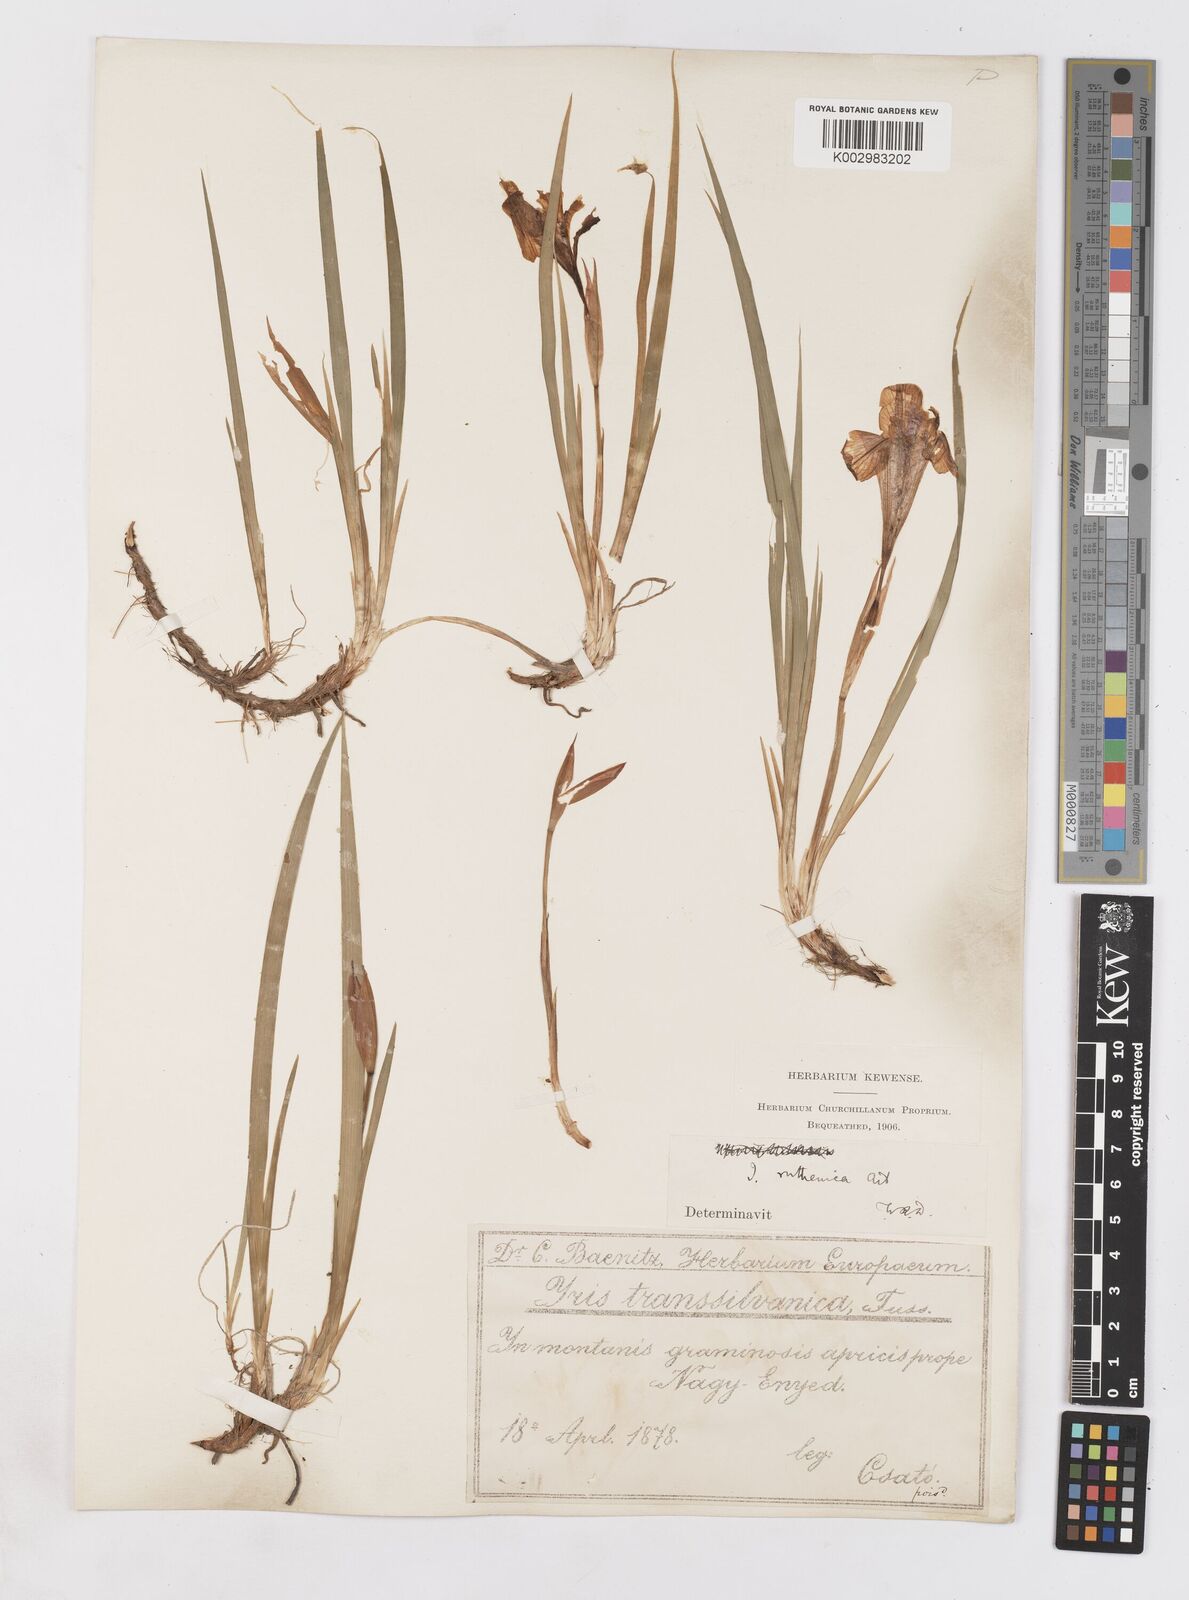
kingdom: Plantae
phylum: Tracheophyta
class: Liliopsida
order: Asparagales
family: Iridaceae
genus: Iris
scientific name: Iris ruthenica
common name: Purple-bract iris
